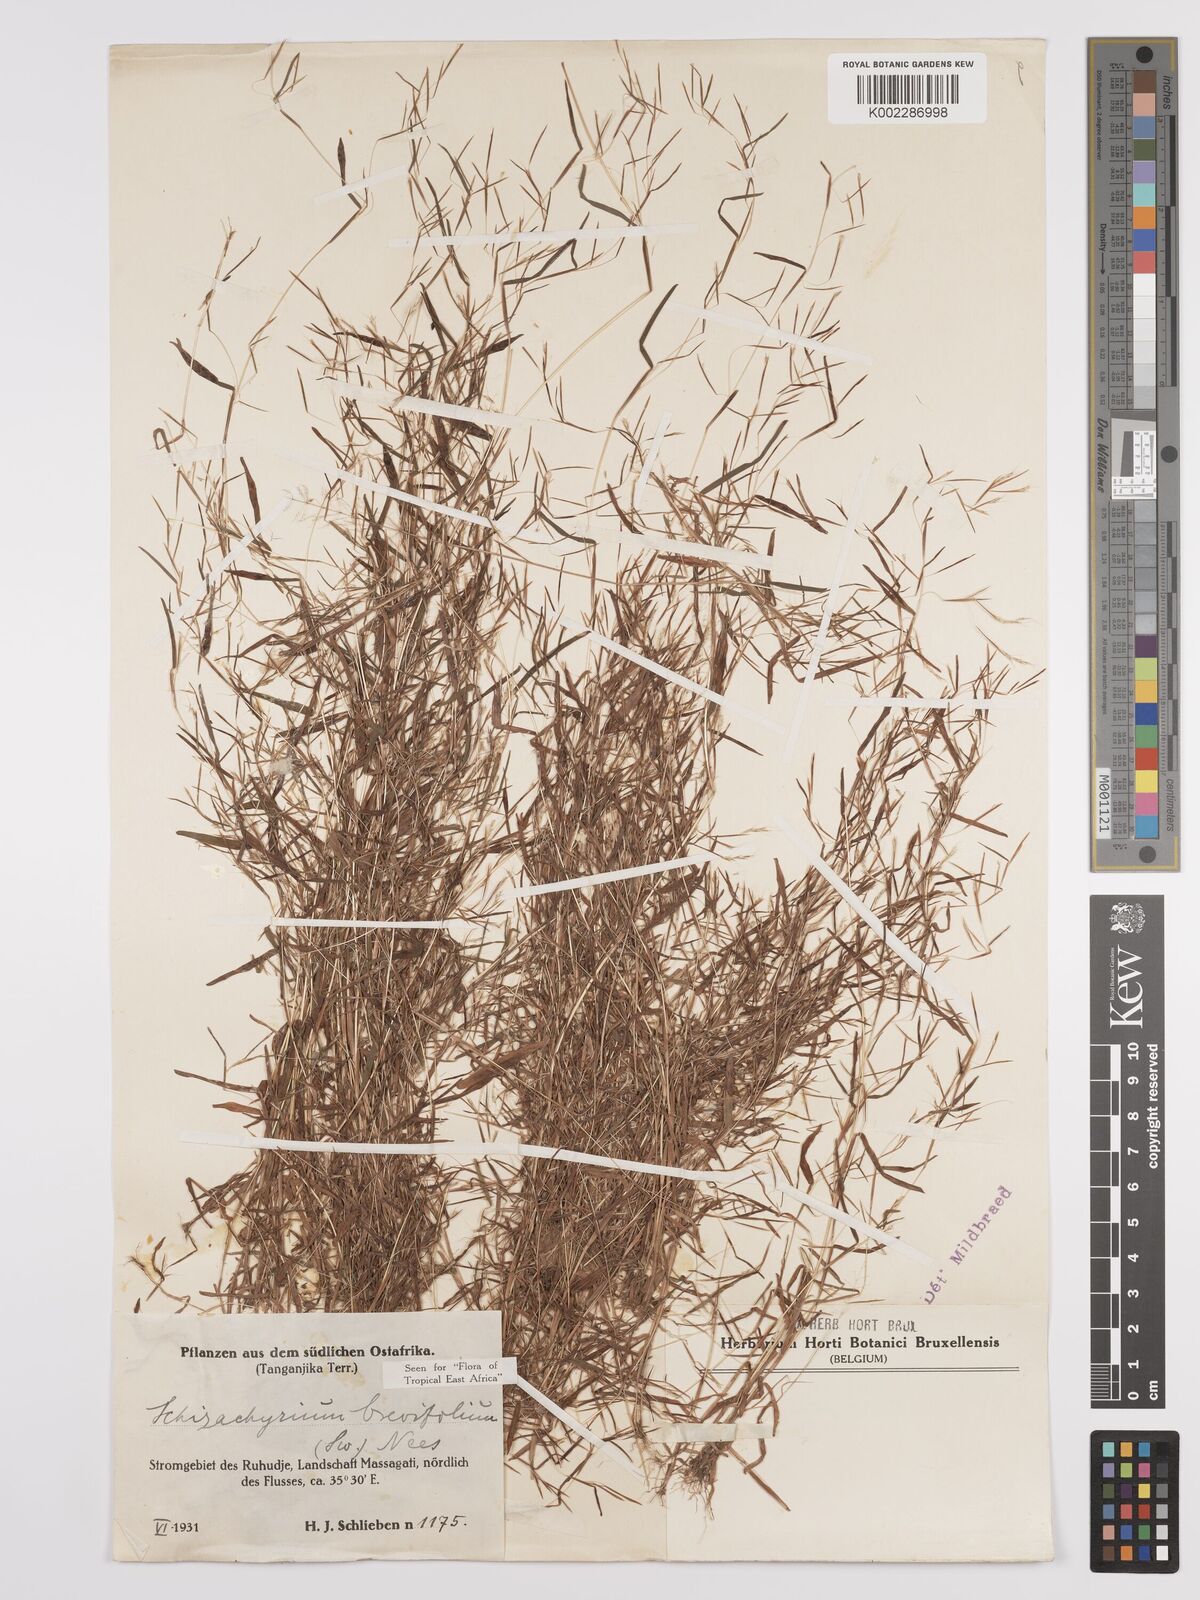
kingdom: Plantae
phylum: Tracheophyta
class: Liliopsida
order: Poales
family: Poaceae
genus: Schizachyrium
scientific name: Schizachyrium brevifolium
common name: Serillo dulce
